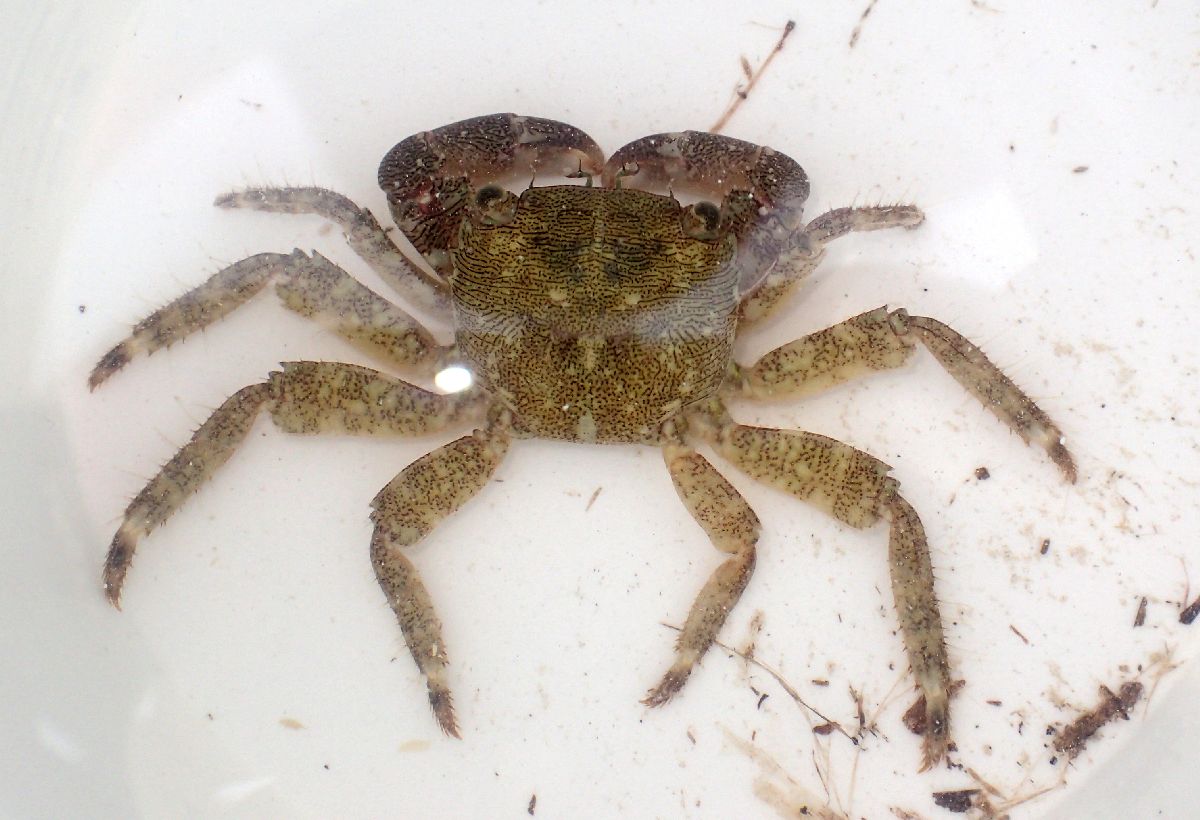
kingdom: Animalia
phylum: Arthropoda
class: Malacostraca
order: Decapoda
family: Grapsidae
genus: Pachygrapsus
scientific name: Pachygrapsus marmoratus
